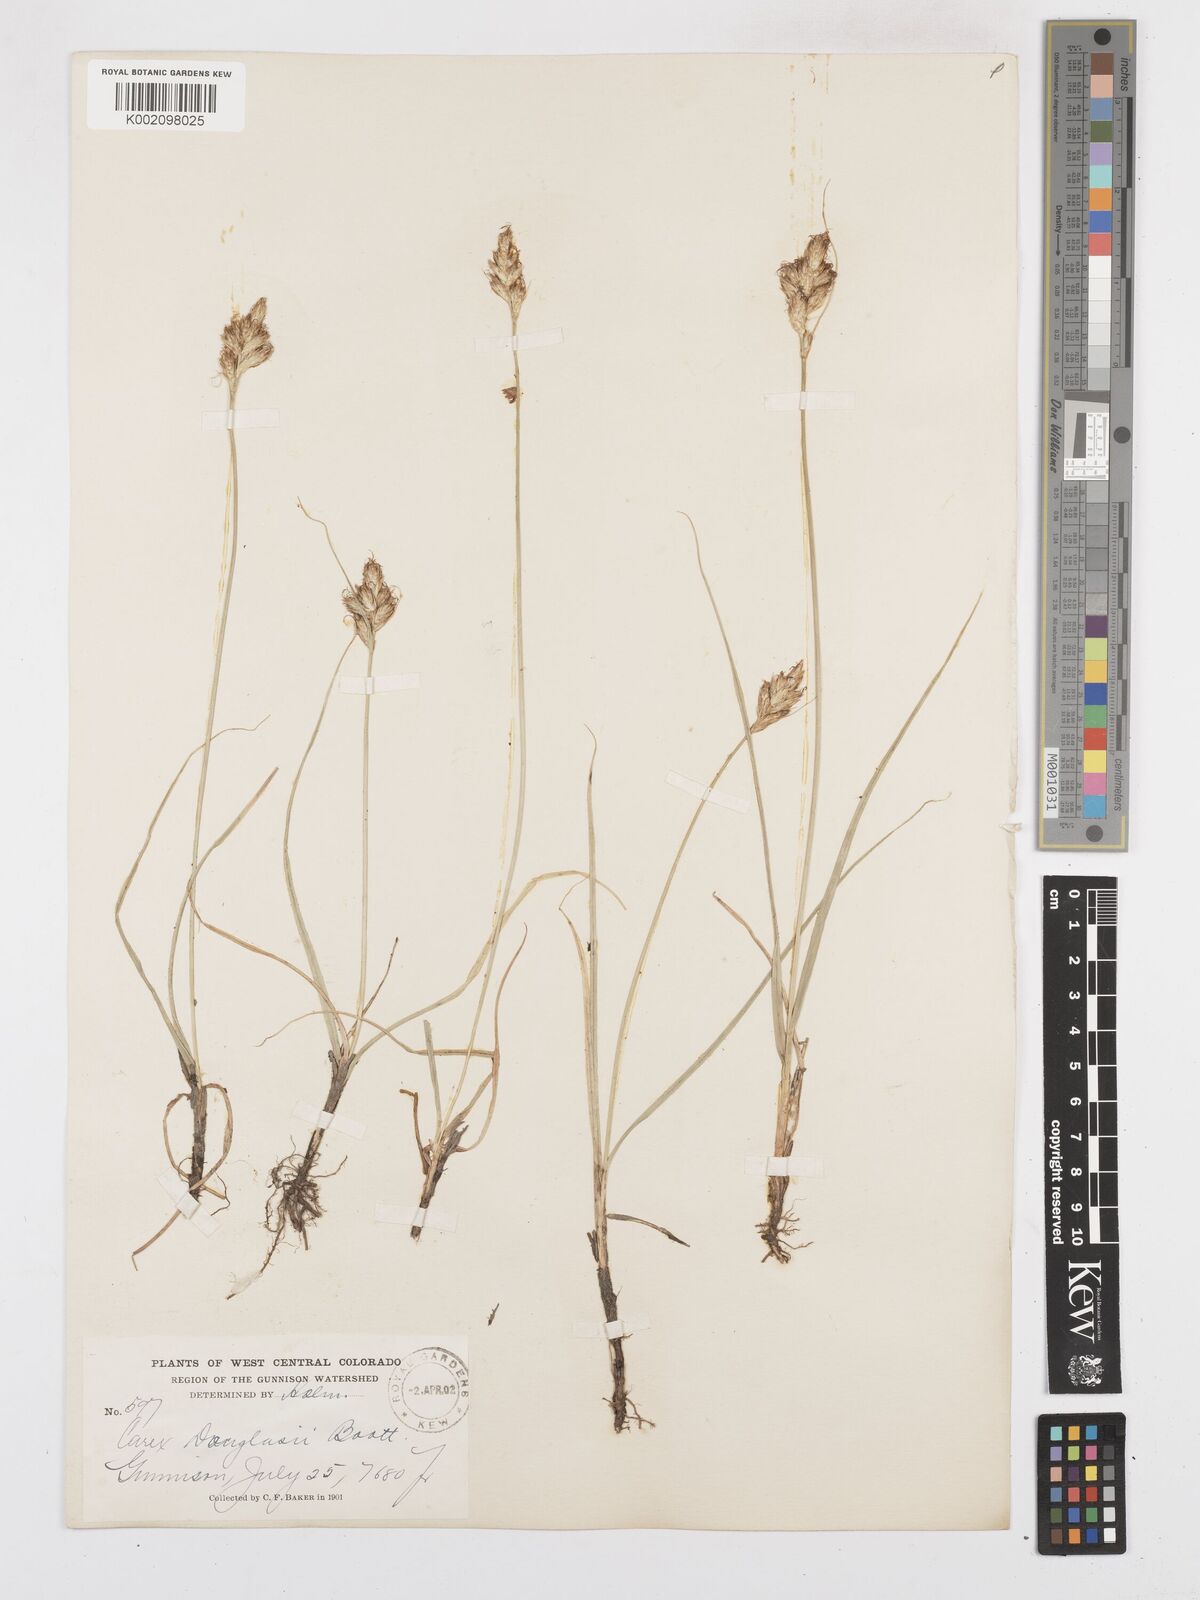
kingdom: Plantae
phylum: Tracheophyta
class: Liliopsida
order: Poales
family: Cyperaceae
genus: Carex
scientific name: Carex douglasii
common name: Douglas' sedge
